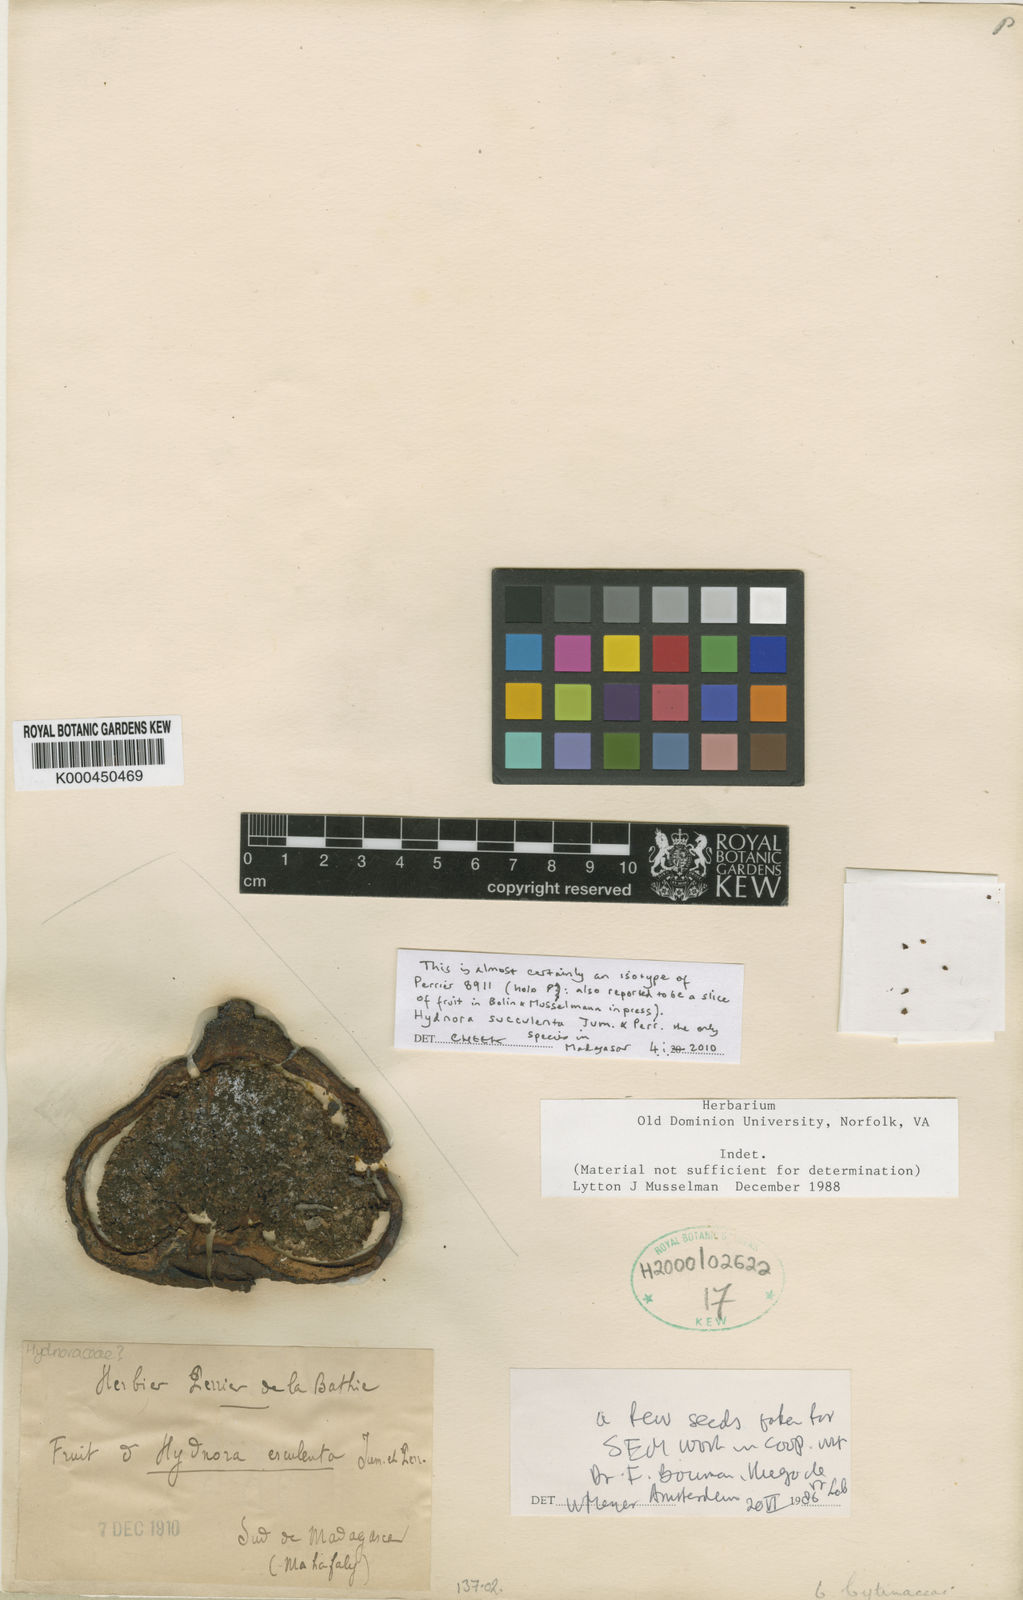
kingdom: Plantae
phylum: Tracheophyta
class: Magnoliopsida
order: Piperales
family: Hydnoraceae
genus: Hydnora
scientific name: Hydnora esculenta
